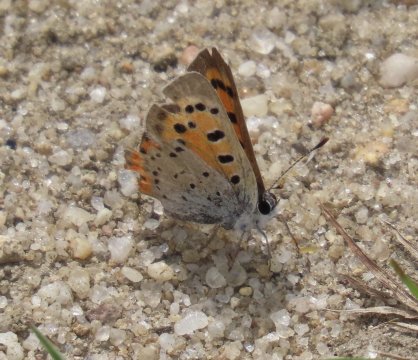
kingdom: Animalia
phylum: Arthropoda
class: Insecta
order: Lepidoptera
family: Lycaenidae
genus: Lycaena
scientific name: Lycaena phlaeas
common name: American Copper
